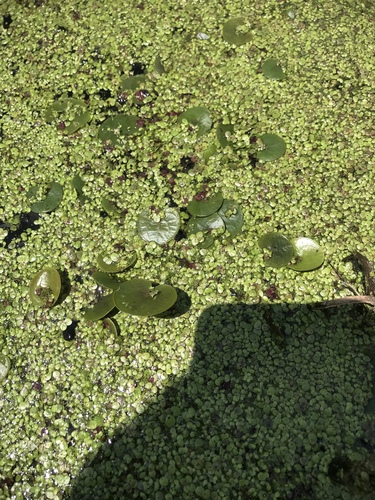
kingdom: Plantae
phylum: Tracheophyta
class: Liliopsida
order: Alismatales
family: Hydrocharitaceae
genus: Hydrocharis
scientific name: Hydrocharis morsus-ranae
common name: European frog-bit
